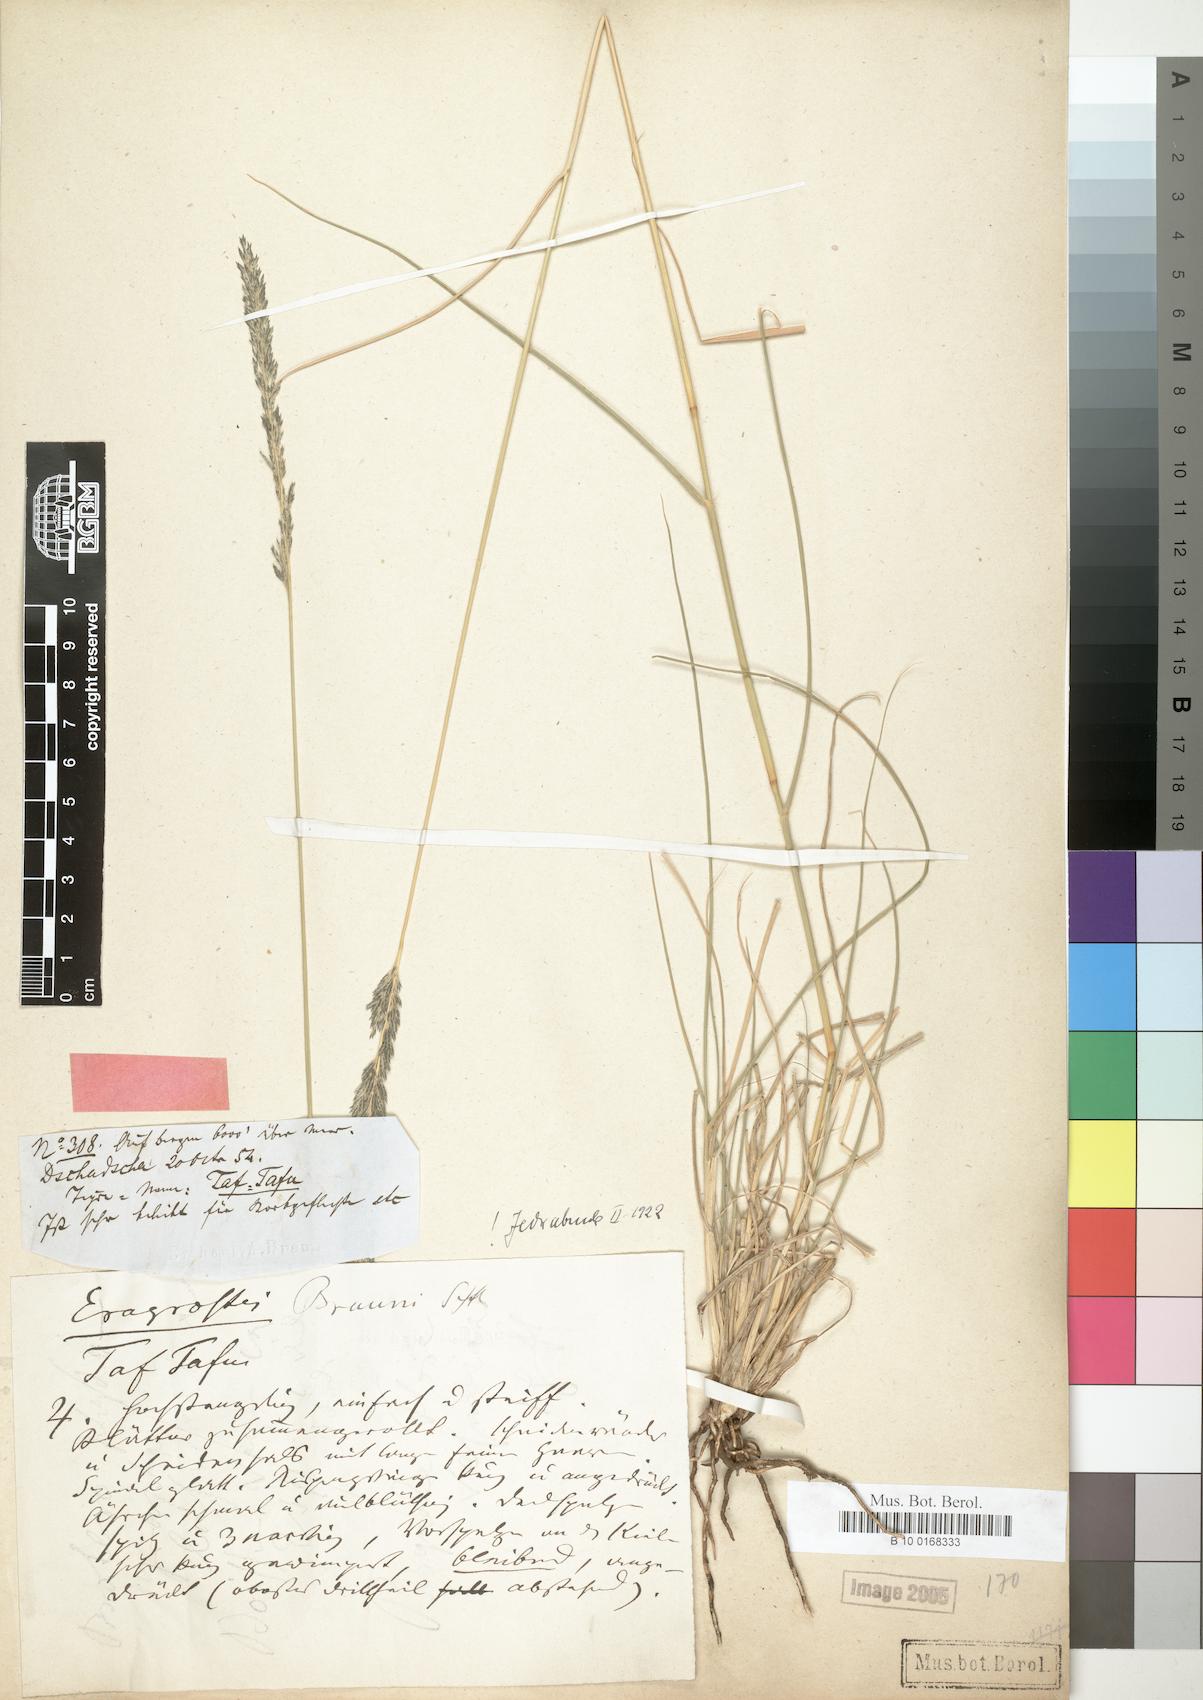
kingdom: Plantae
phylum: Tracheophyta
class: Liliopsida
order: Poales
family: Poaceae
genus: Eragrostis
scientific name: Eragrostis braunii
